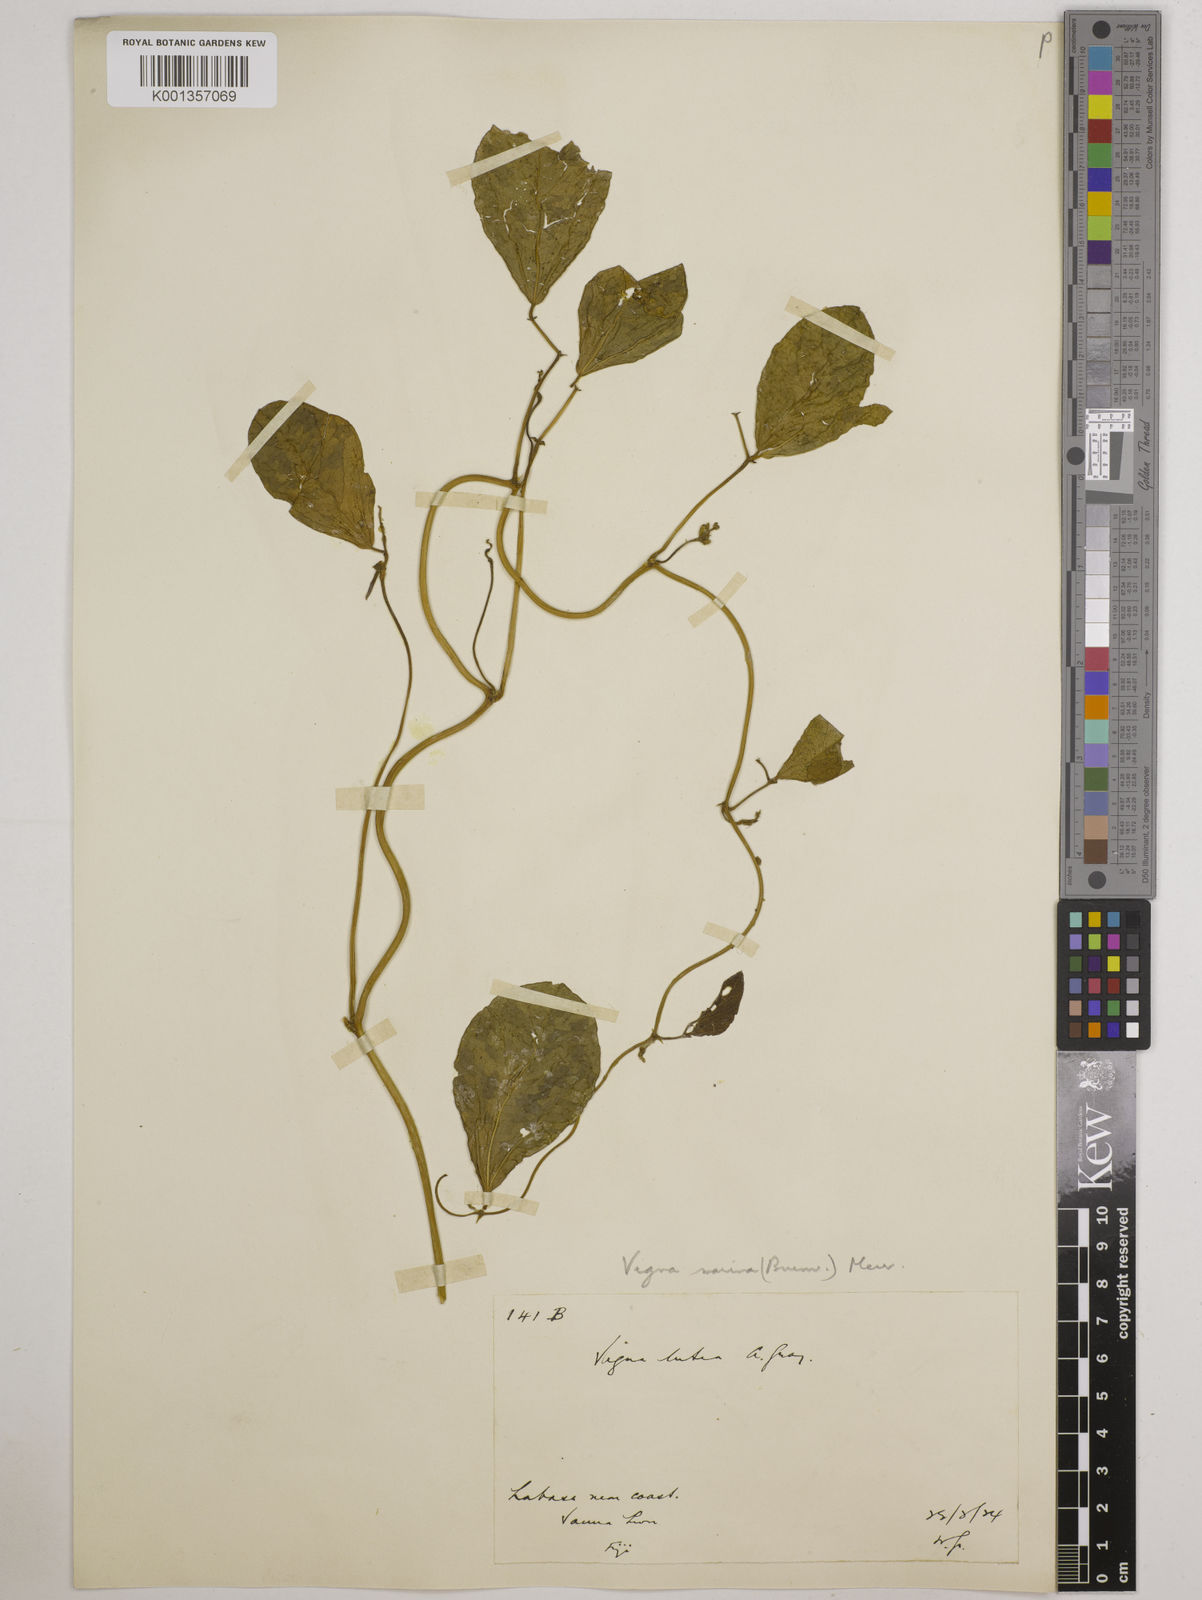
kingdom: Plantae
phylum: Tracheophyta
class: Magnoliopsida
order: Fabales
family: Fabaceae
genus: Vigna
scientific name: Vigna marina
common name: Dune-bean
